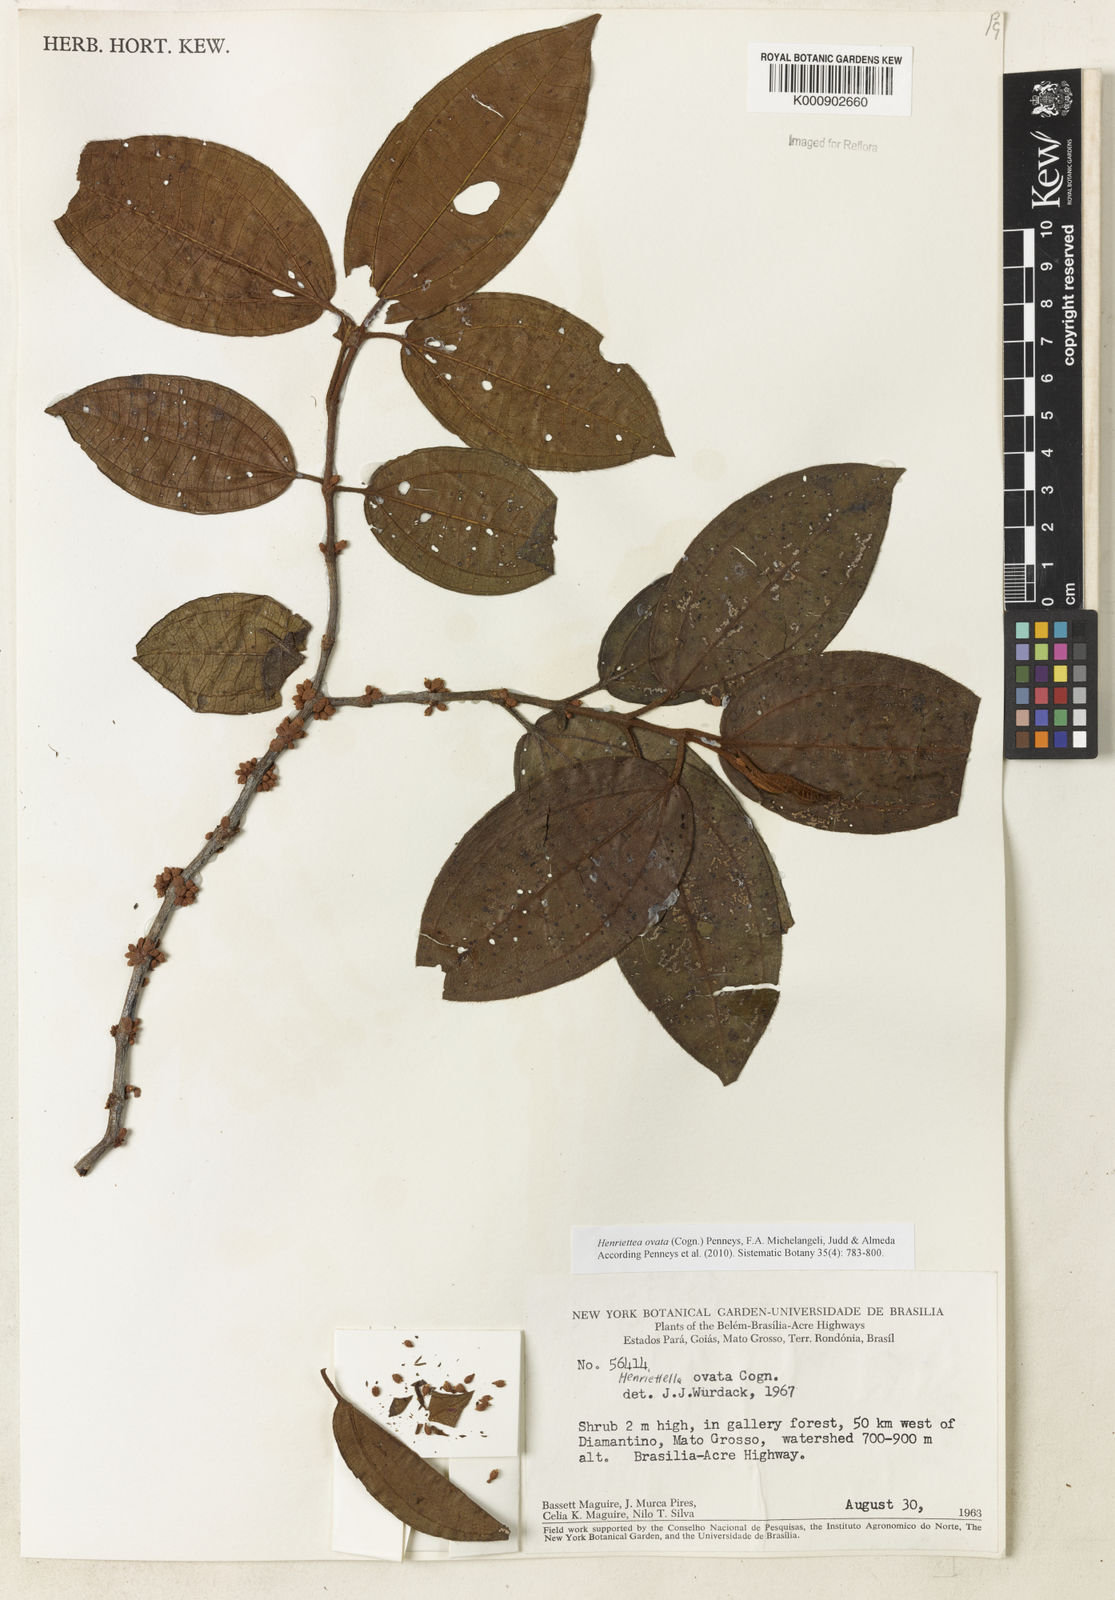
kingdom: Plantae
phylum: Tracheophyta
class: Magnoliopsida
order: Myrtales
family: Melastomataceae
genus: Henriettea
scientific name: Henriettea ovata
